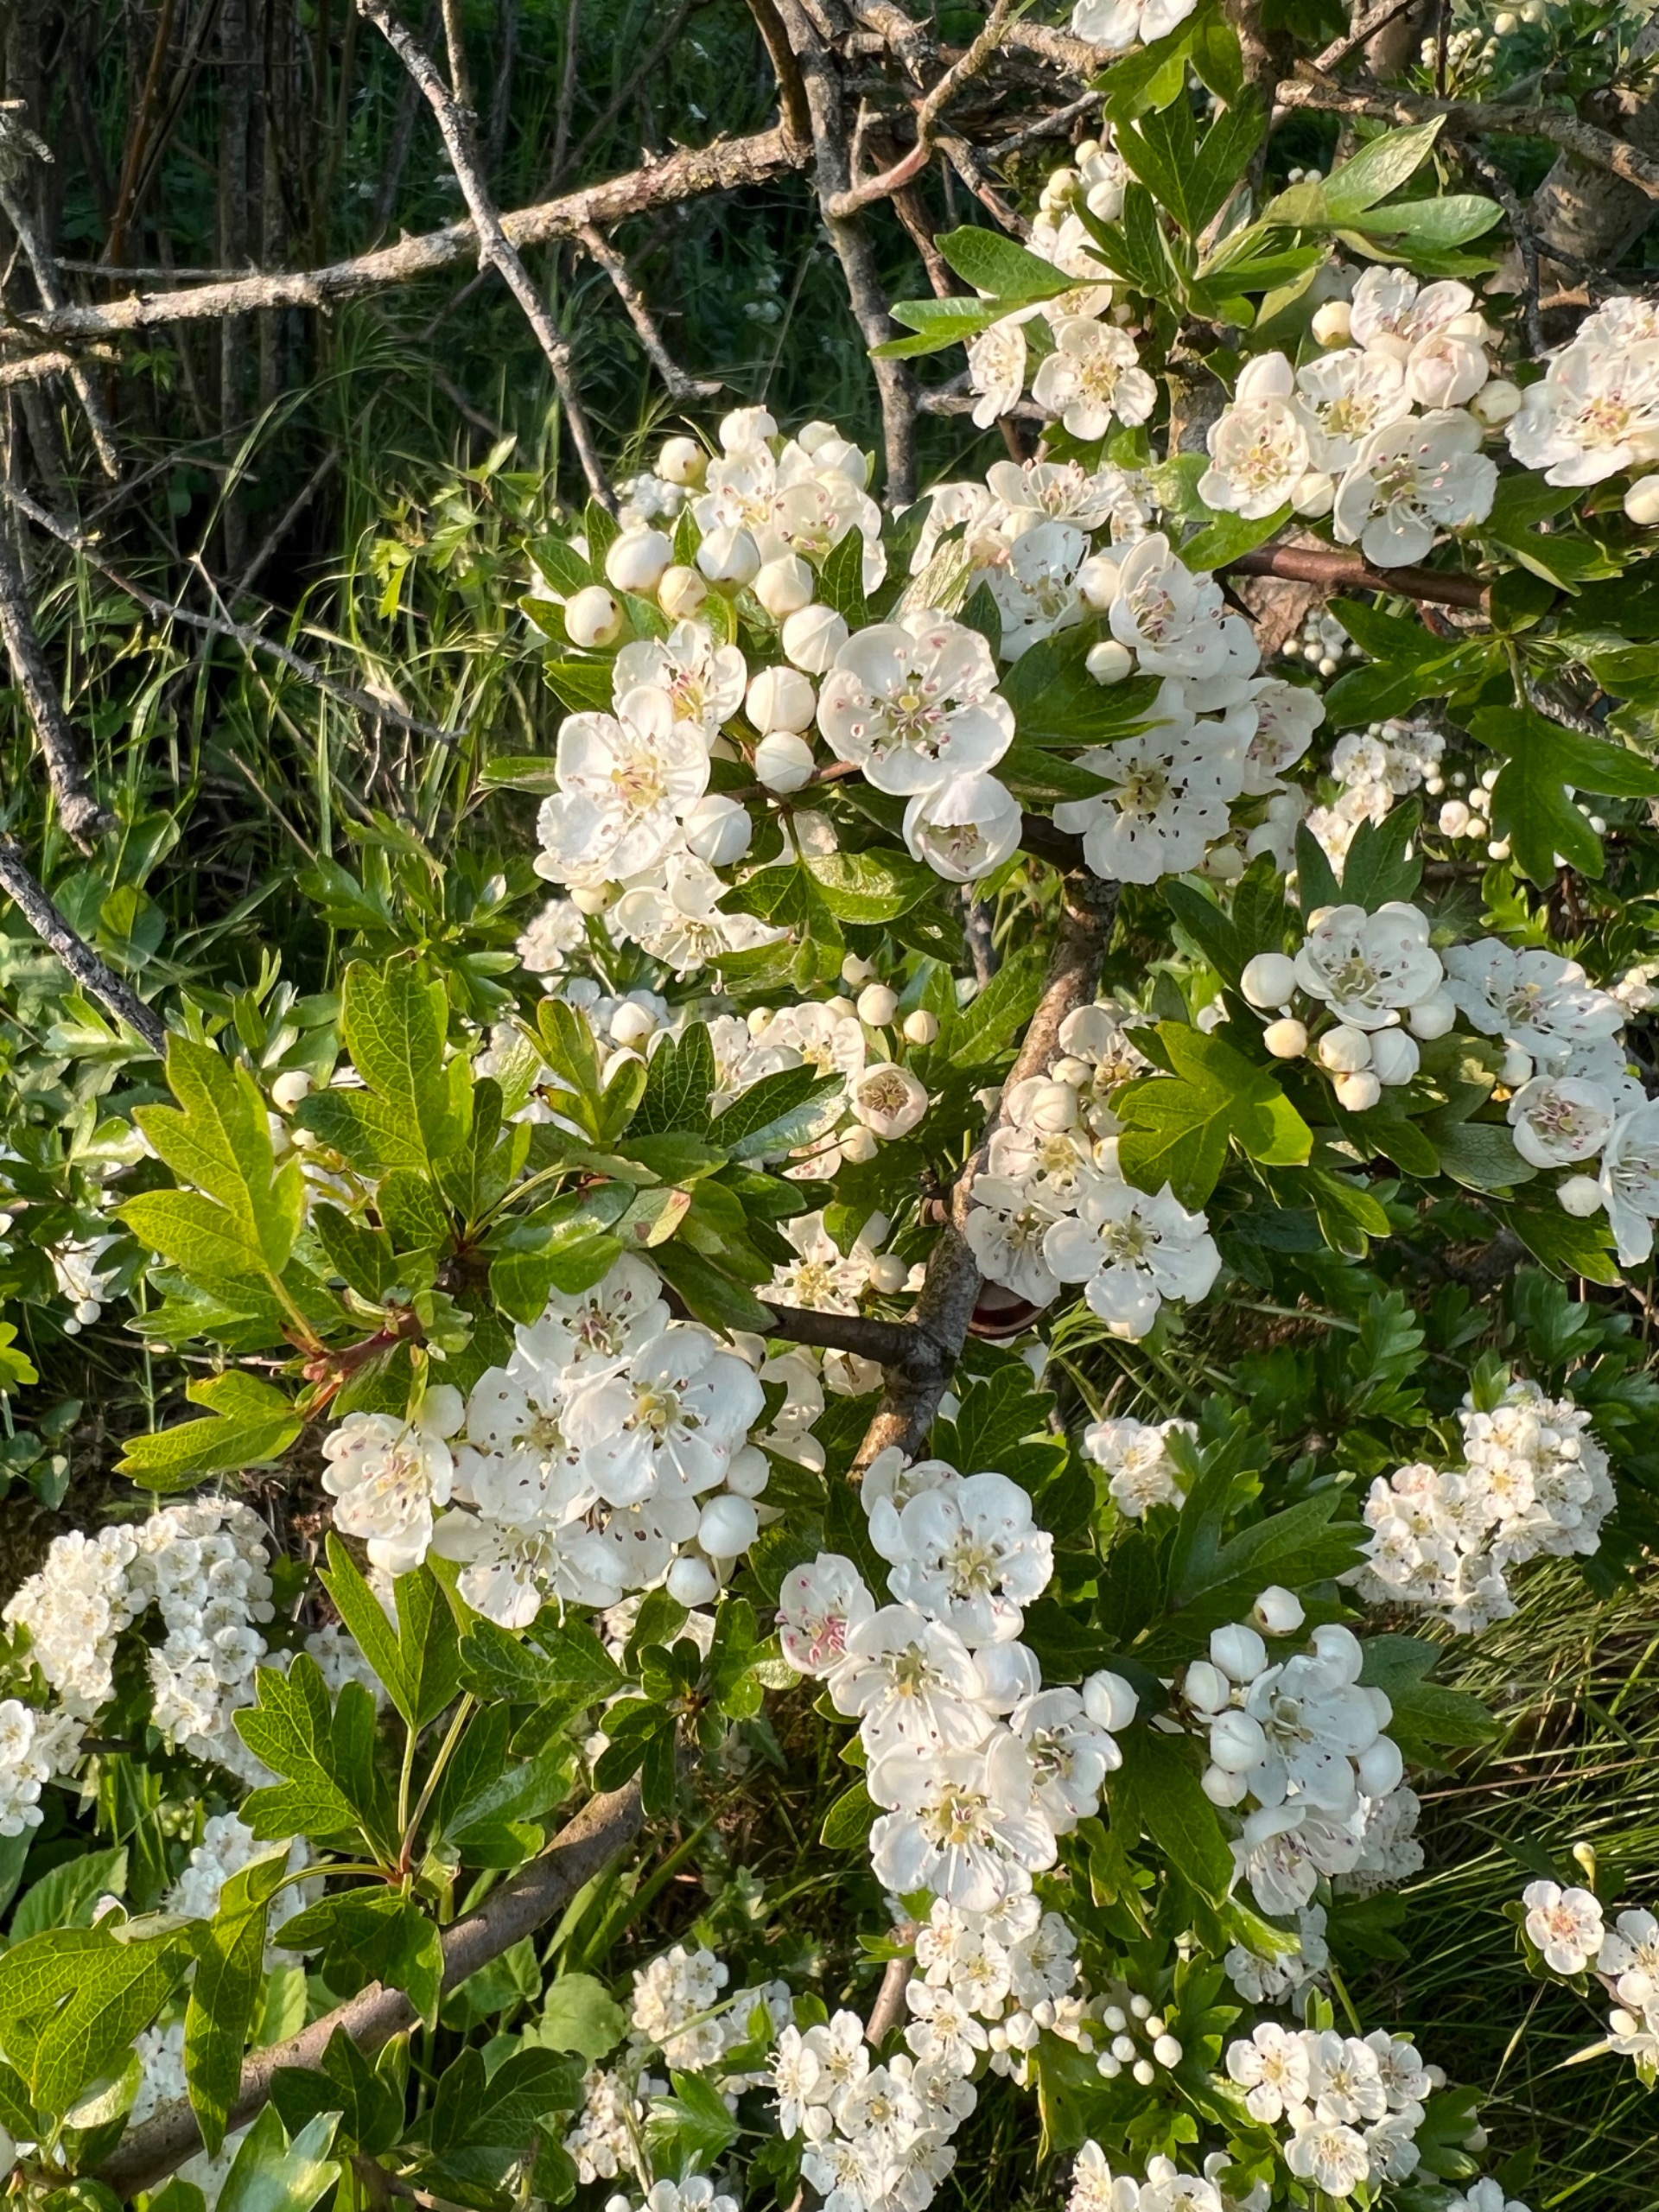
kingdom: Plantae
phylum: Tracheophyta
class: Magnoliopsida
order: Rosales
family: Rosaceae
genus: Crataegus
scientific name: Crataegus monogyna
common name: Engriflet hvidtjørn
